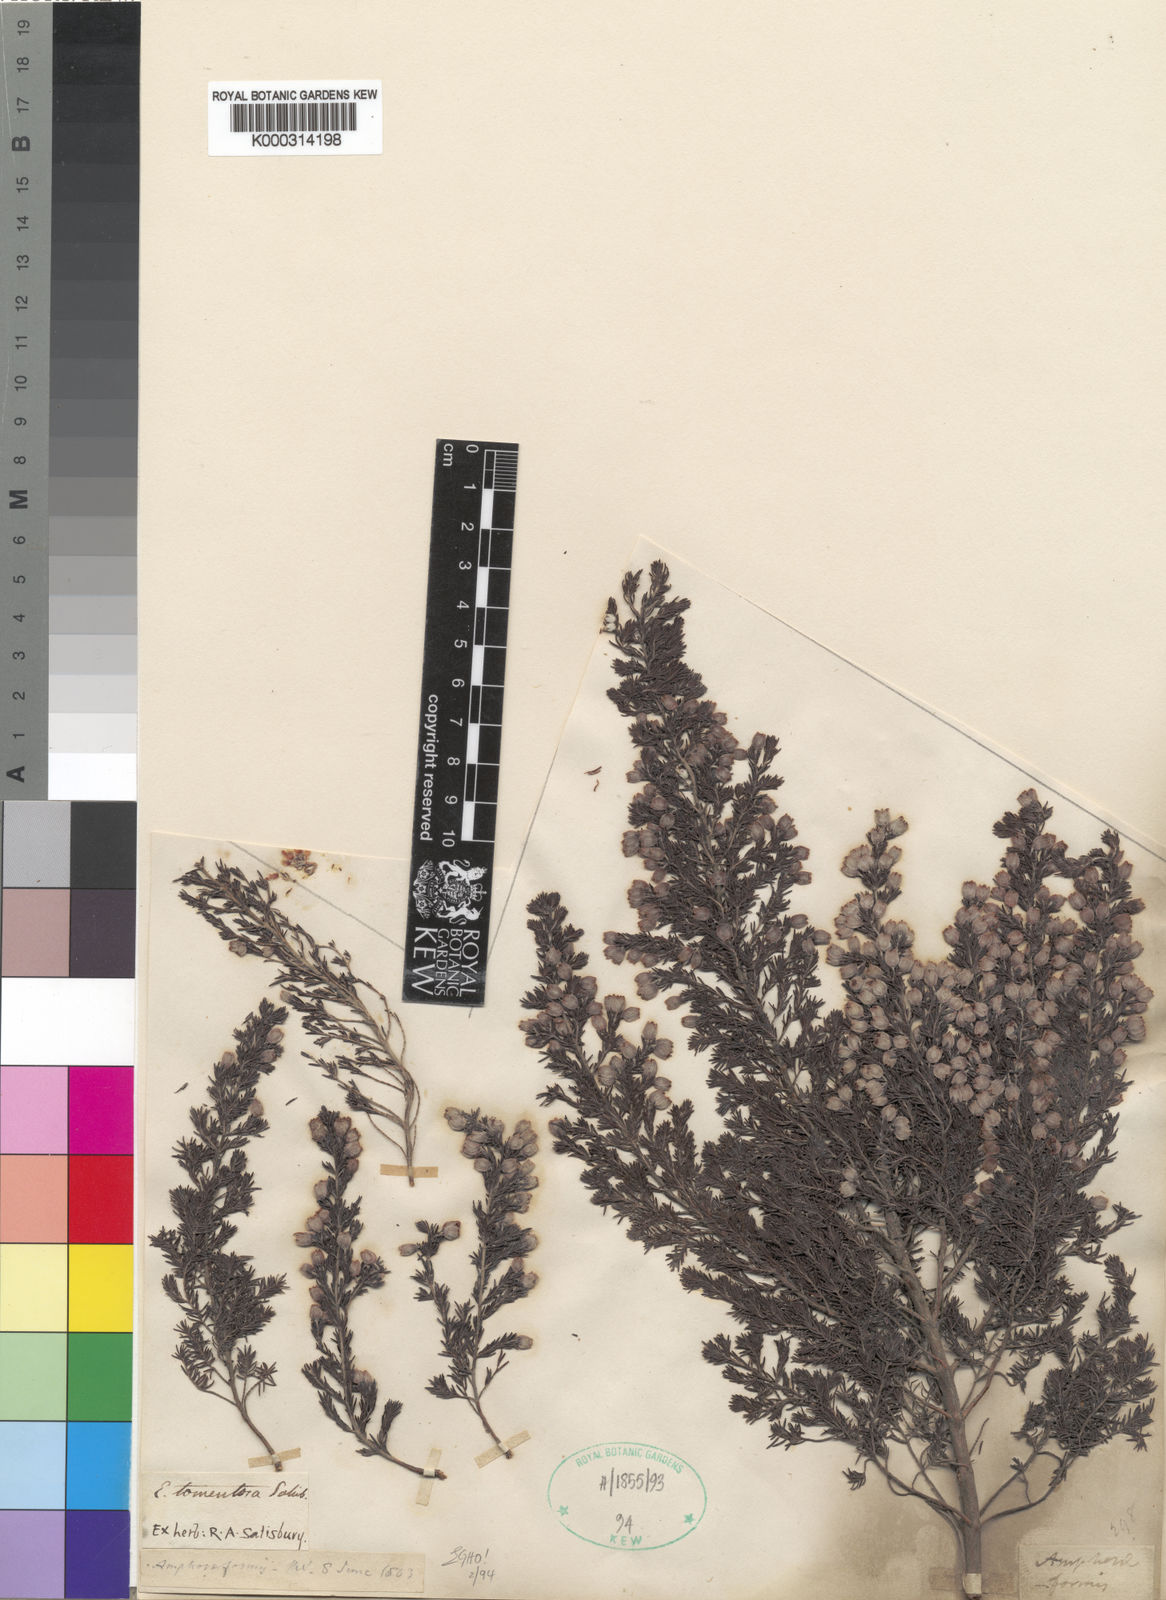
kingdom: Plantae
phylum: Tracheophyta
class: Magnoliopsida
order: Ericales
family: Ericaceae
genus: Erica
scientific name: Erica tomentosa
